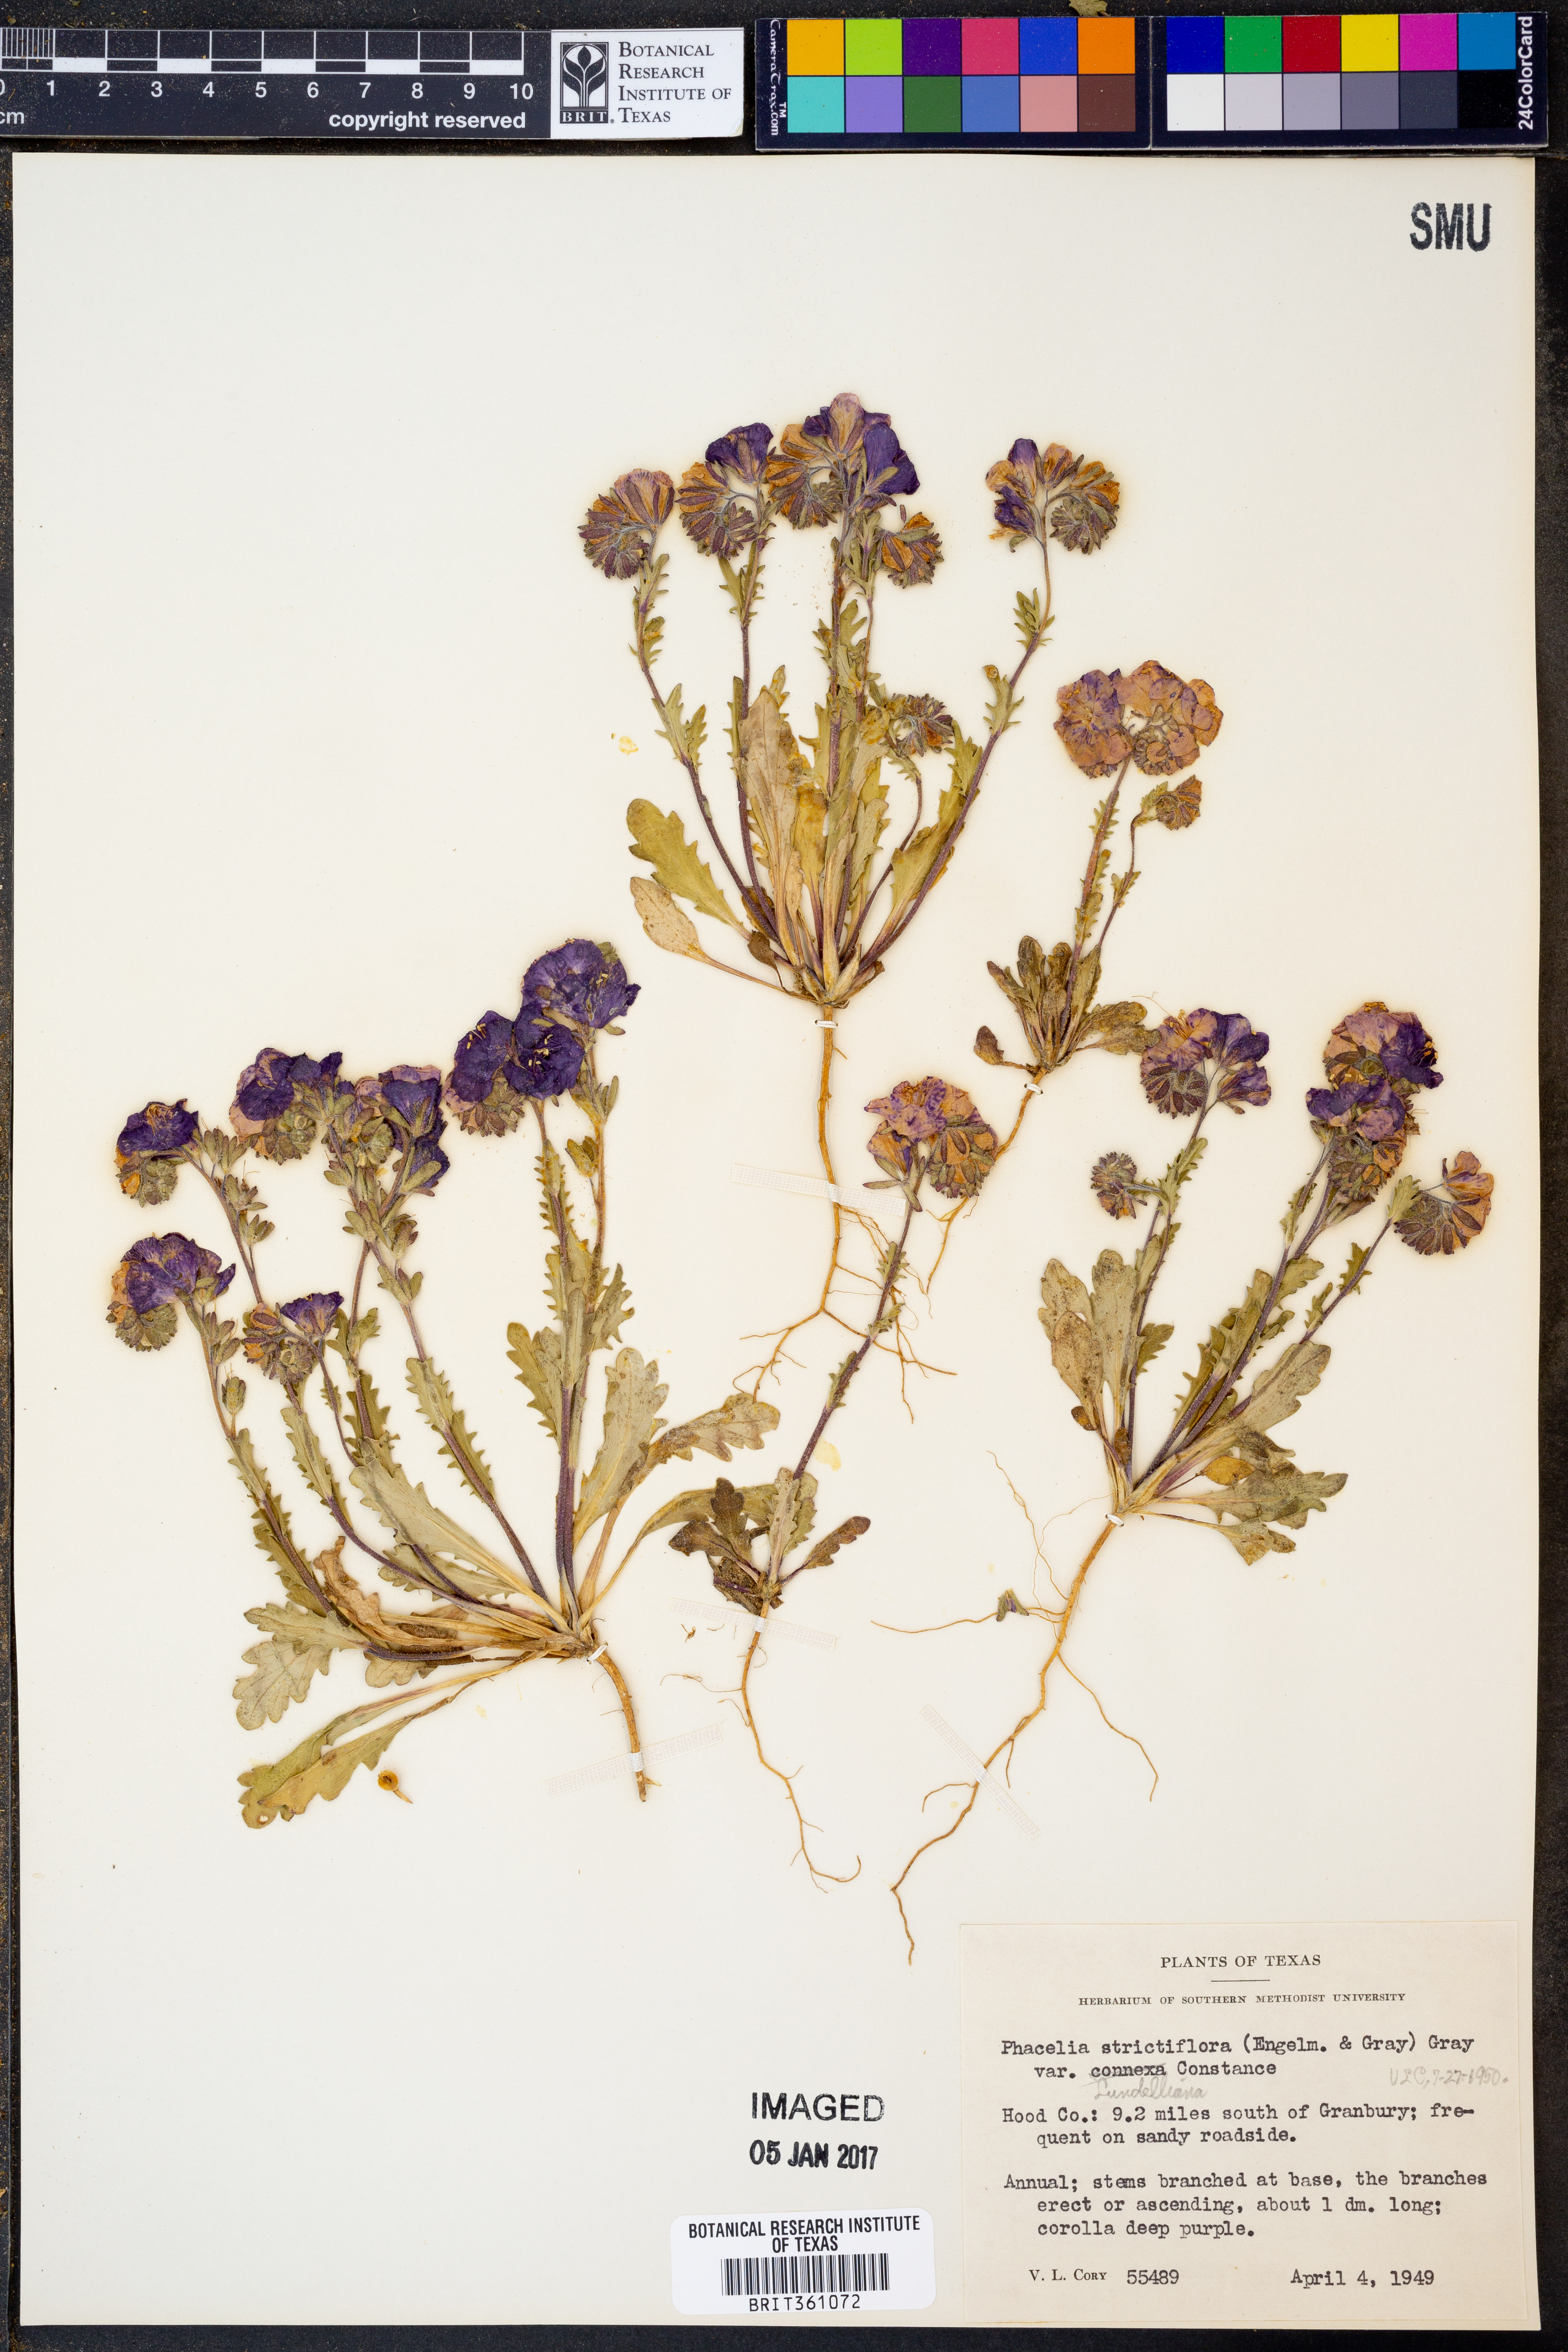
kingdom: Plantae
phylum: Tracheophyta
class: Magnoliopsida
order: Boraginales
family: Hydrophyllaceae
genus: Phacelia
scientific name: Phacelia strictiflora
